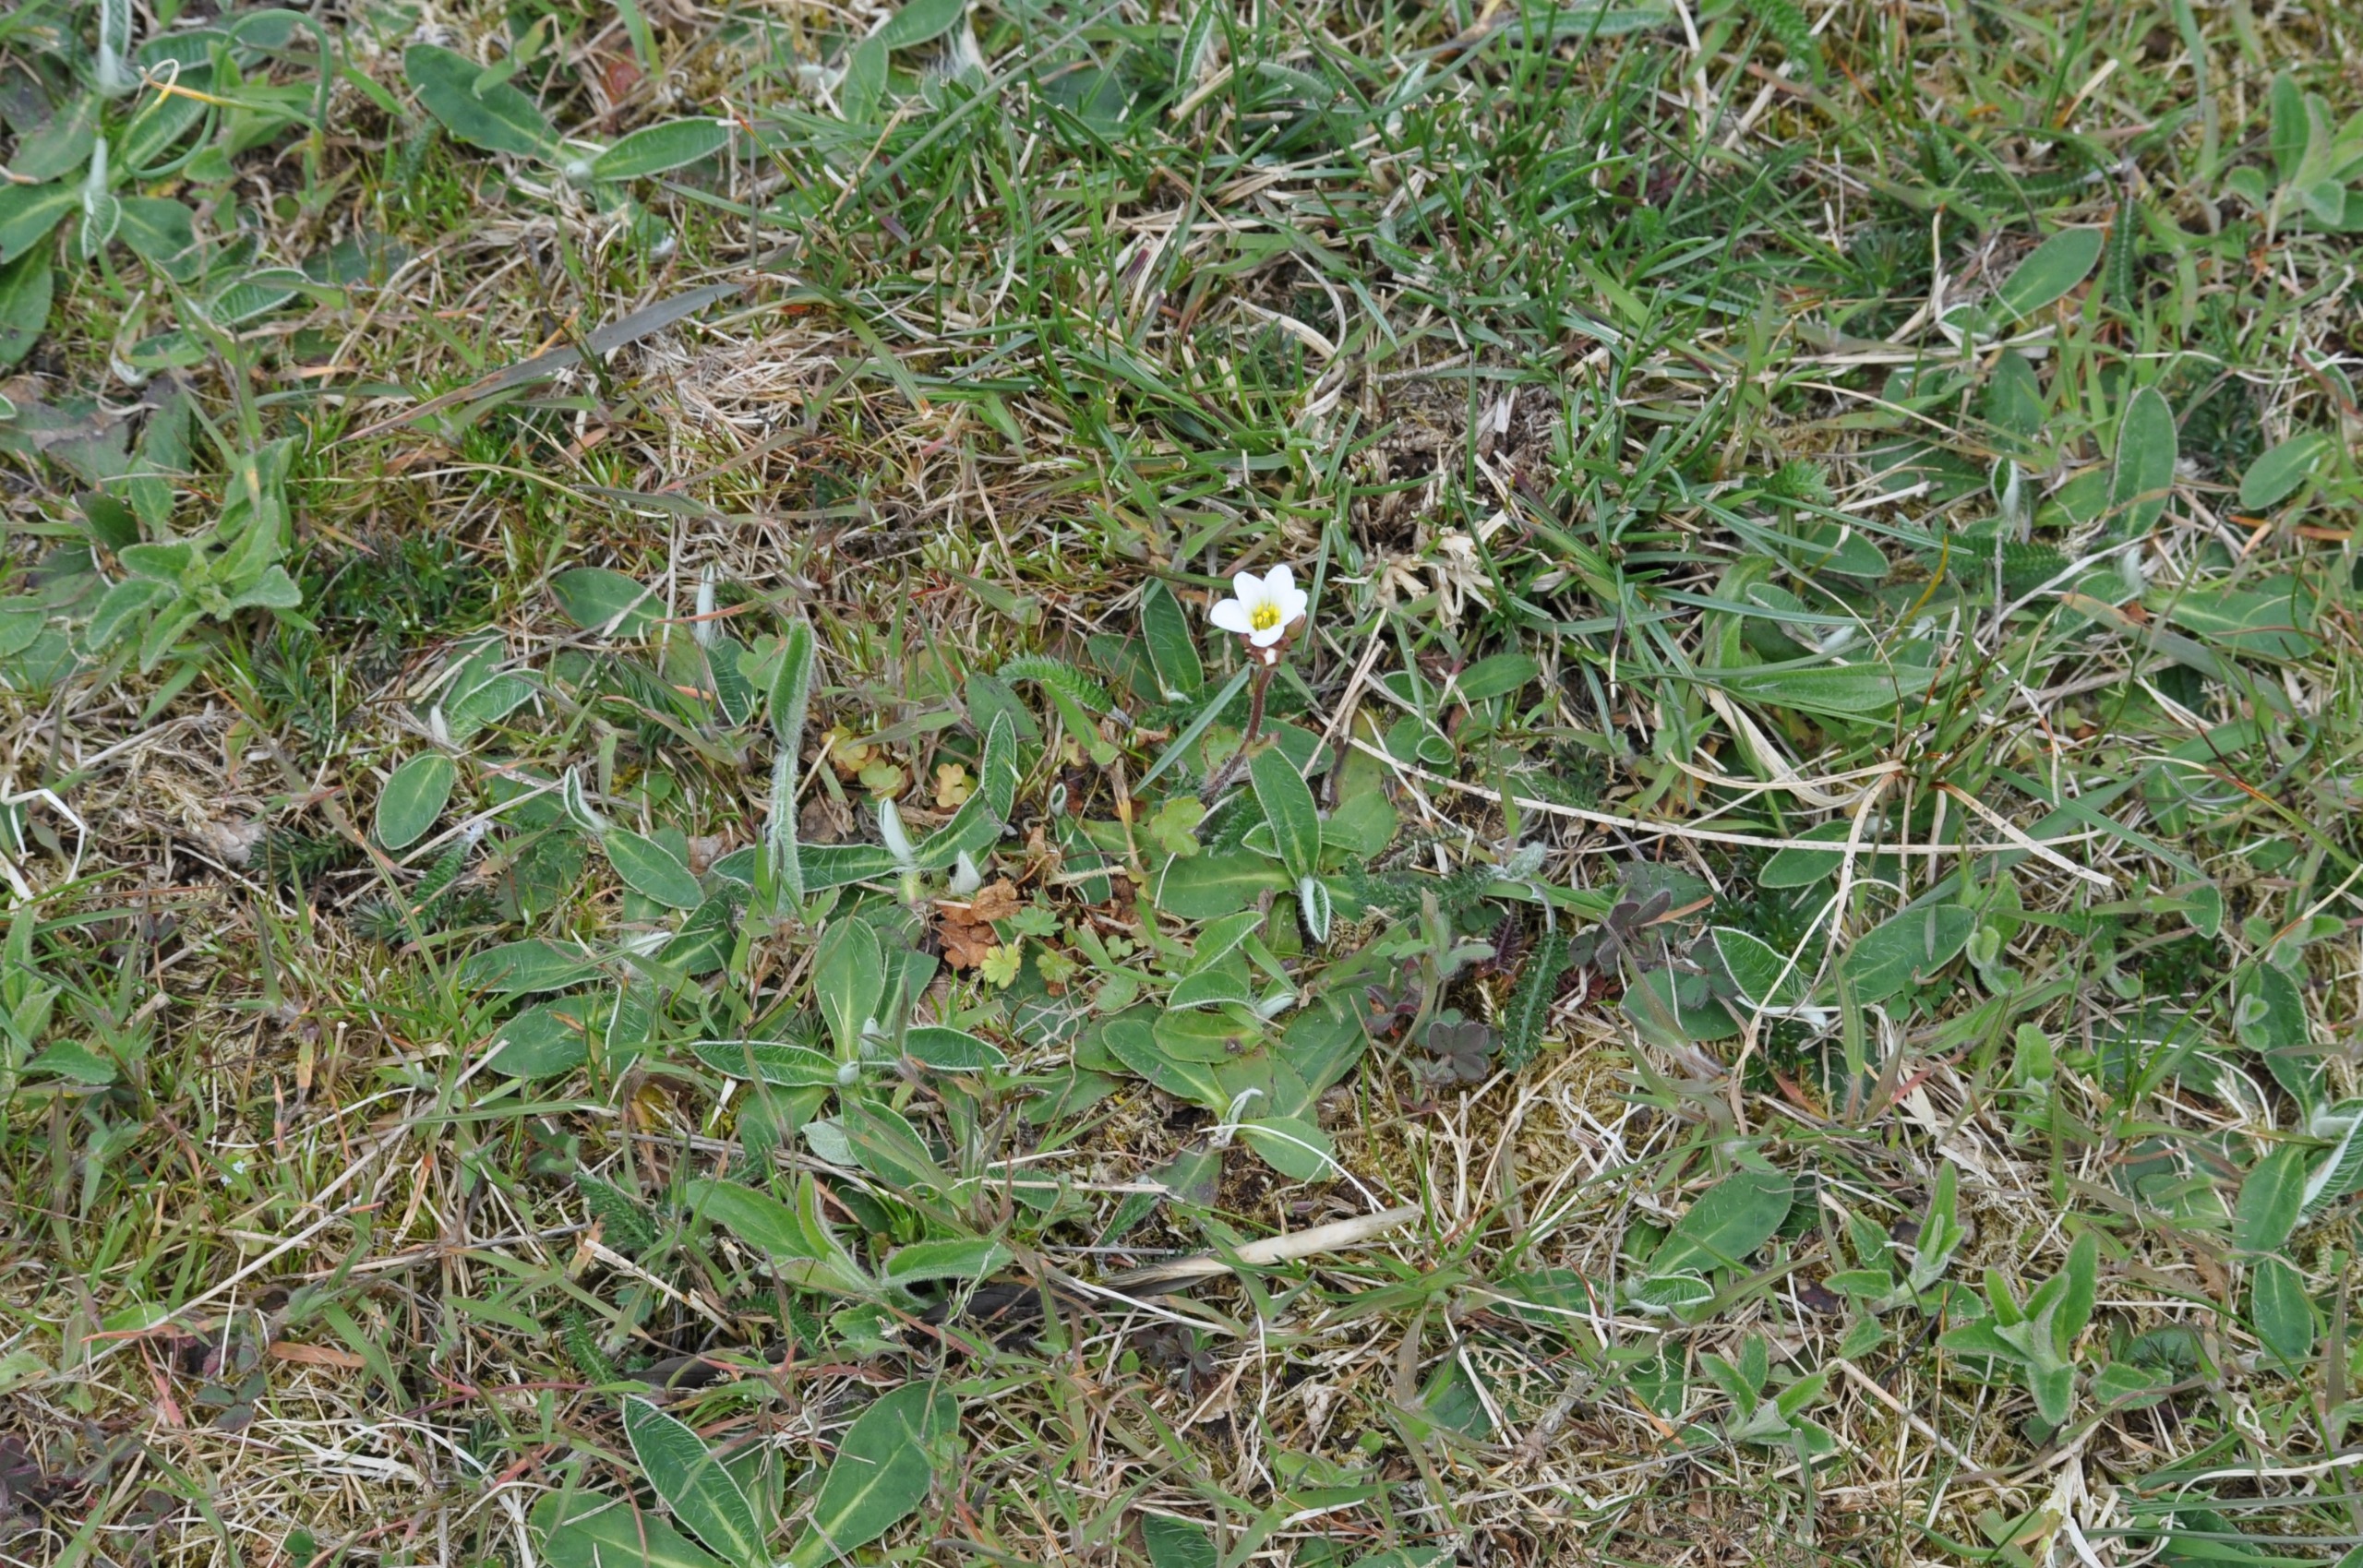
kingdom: Plantae
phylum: Tracheophyta
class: Magnoliopsida
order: Saxifragales
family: Saxifragaceae
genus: Saxifraga
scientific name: Saxifraga granulata
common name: Kornet stenbræk
